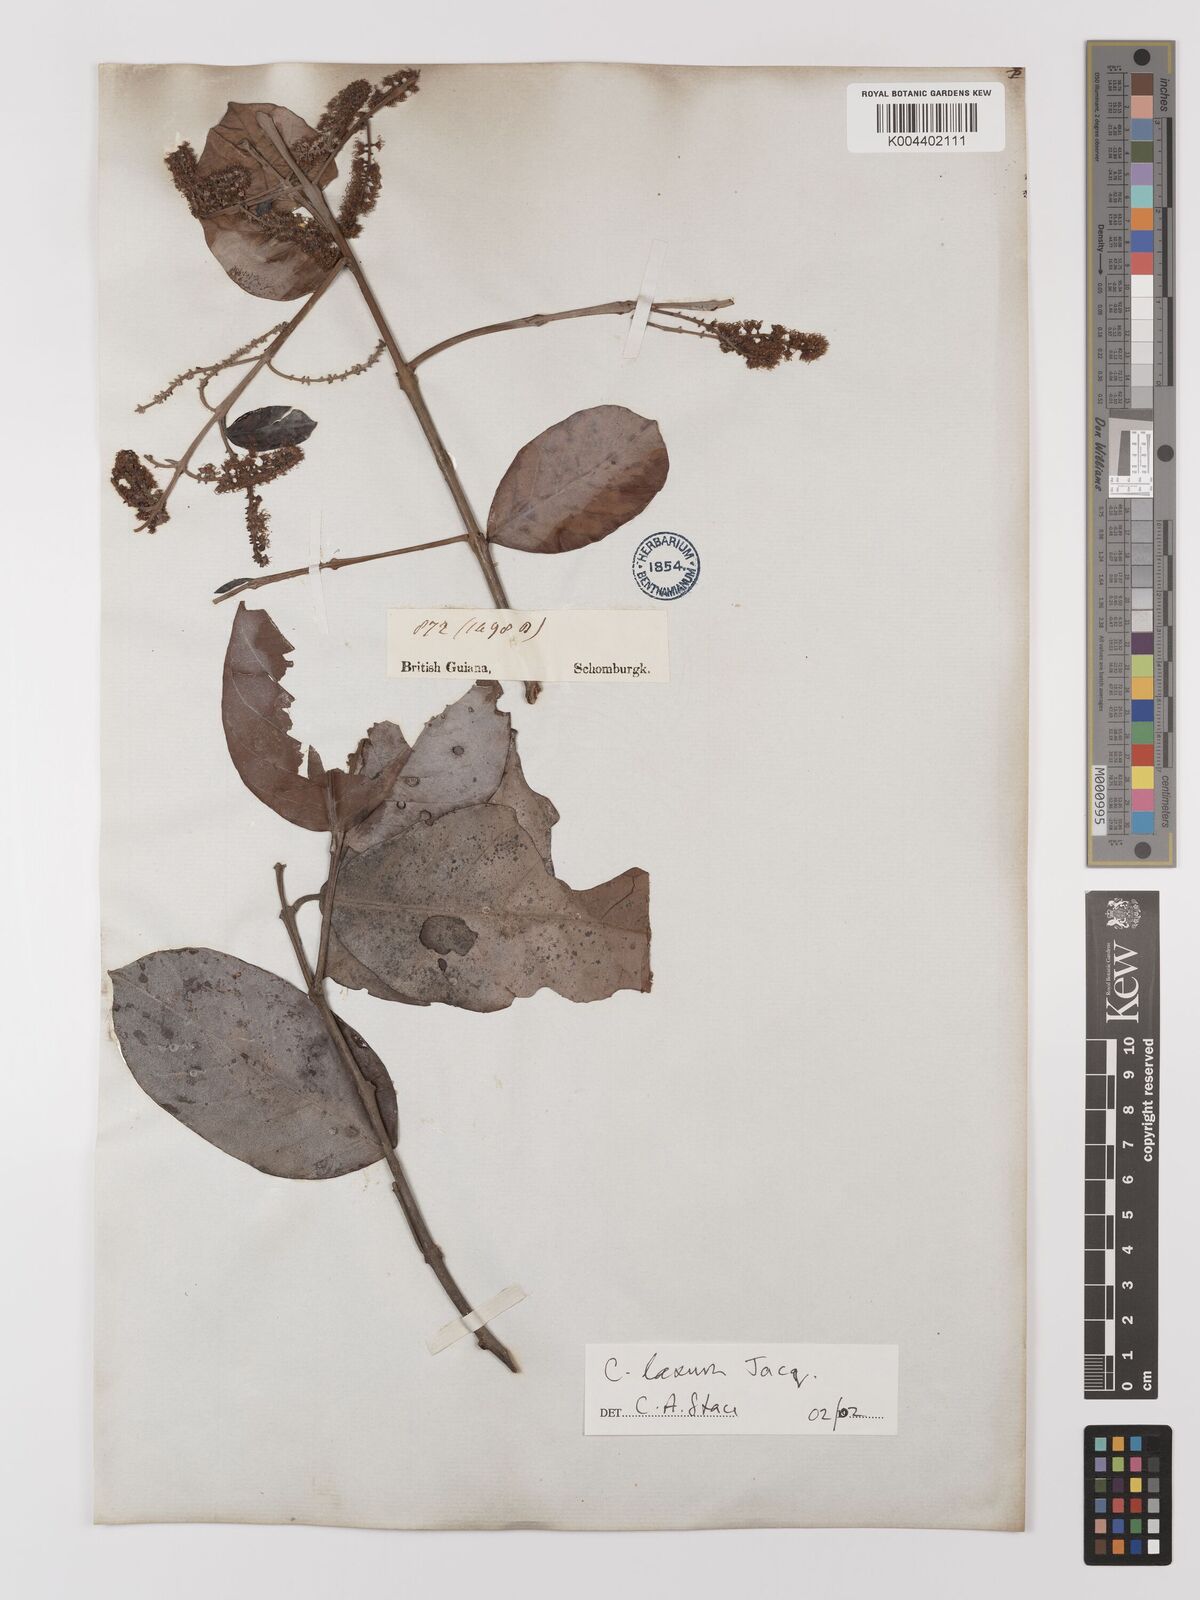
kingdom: Plantae
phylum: Tracheophyta
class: Magnoliopsida
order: Myrtales
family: Combretaceae
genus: Combretum
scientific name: Combretum
